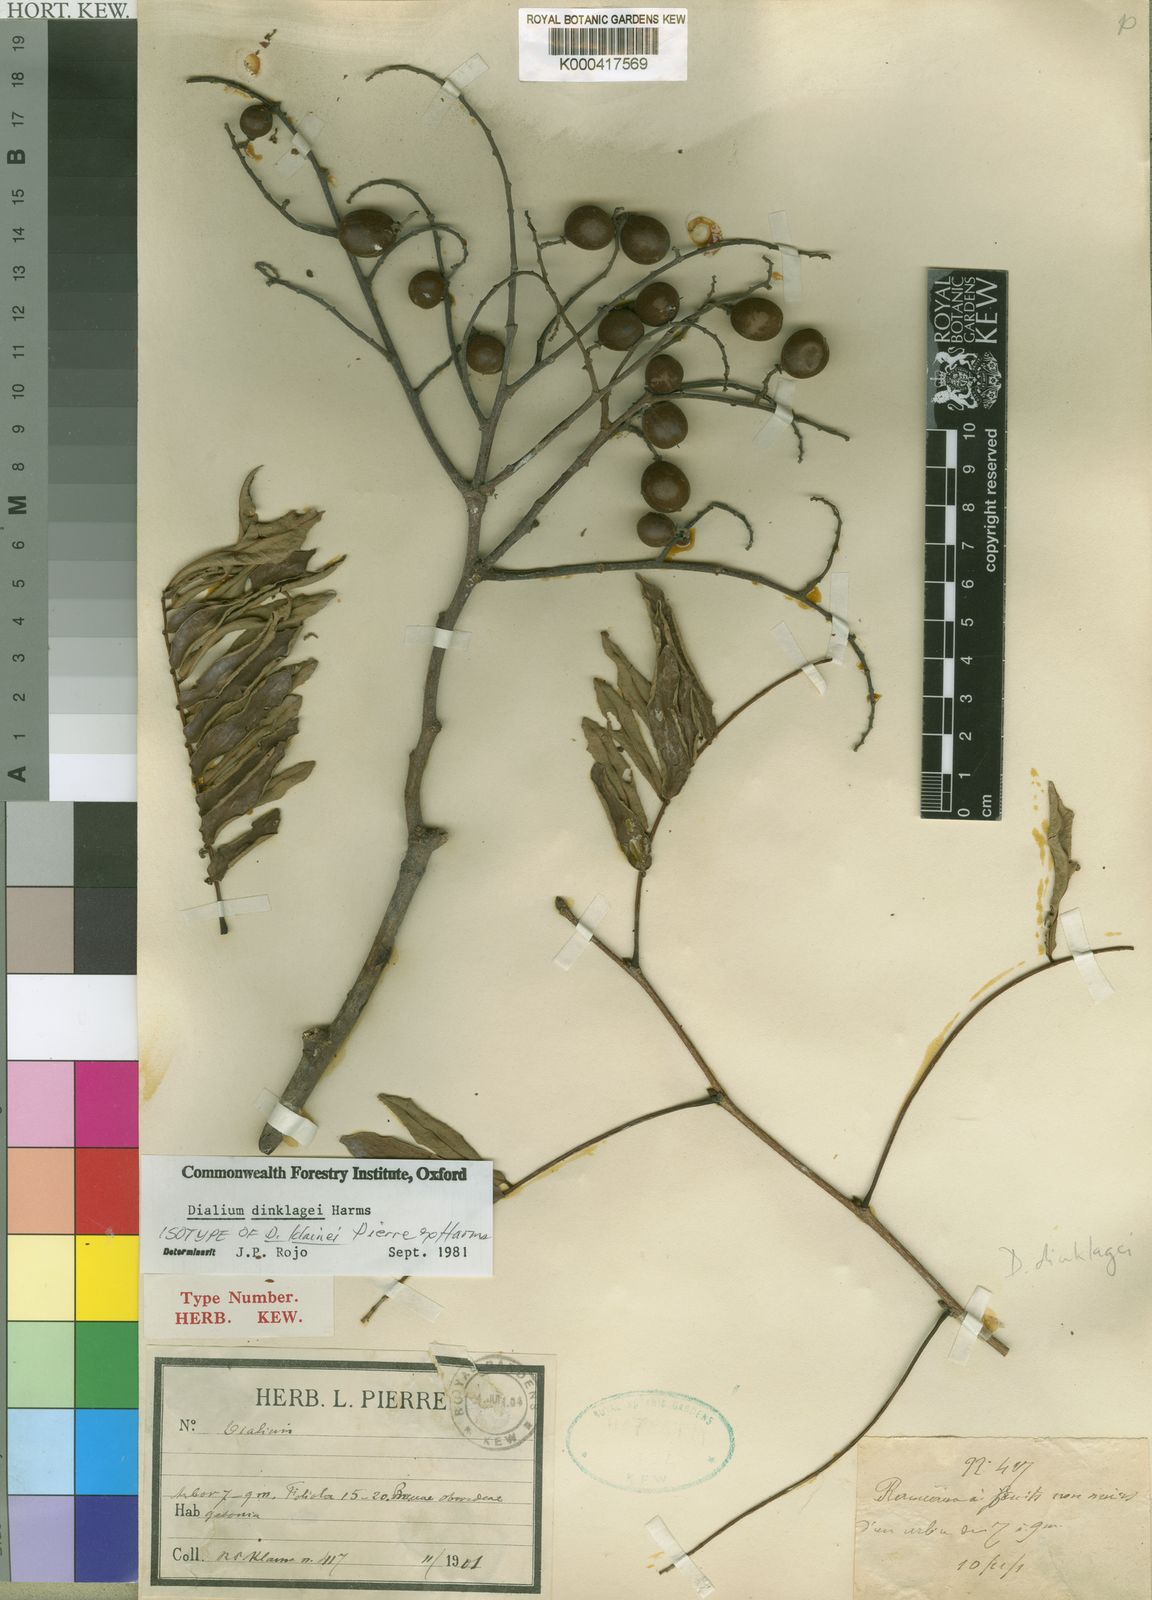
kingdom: Plantae
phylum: Tracheophyta
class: Magnoliopsida
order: Fabales
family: Fabaceae
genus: Dialium
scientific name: Dialium dinklagei
